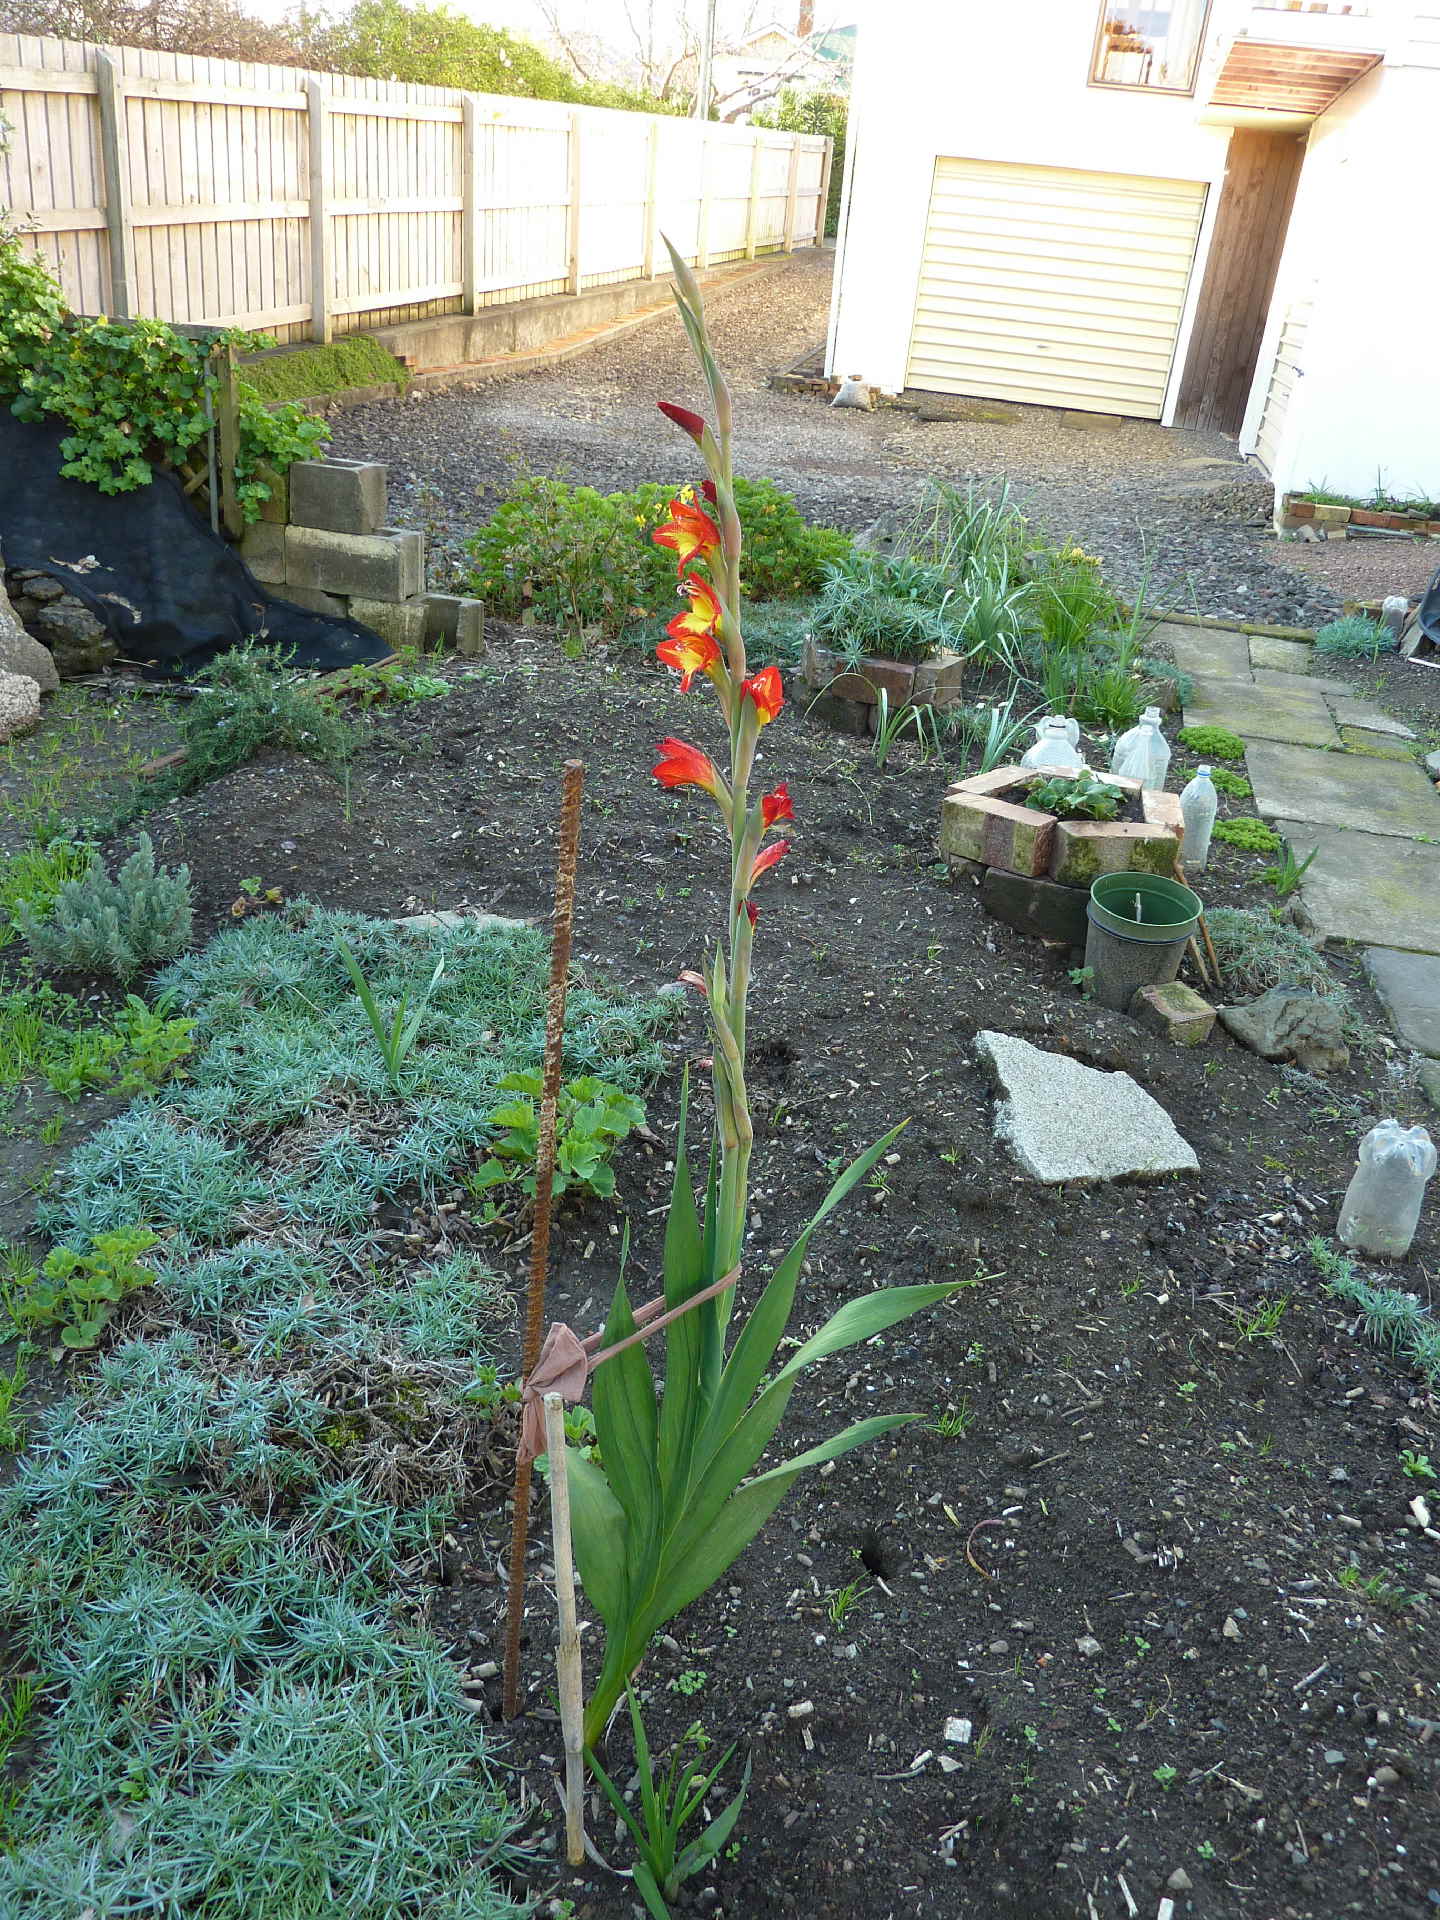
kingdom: Plantae
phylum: Tracheophyta
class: Liliopsida
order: Asparagales
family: Iridaceae
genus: Gladiolus
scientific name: Gladiolus dalenii
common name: Cornflag
